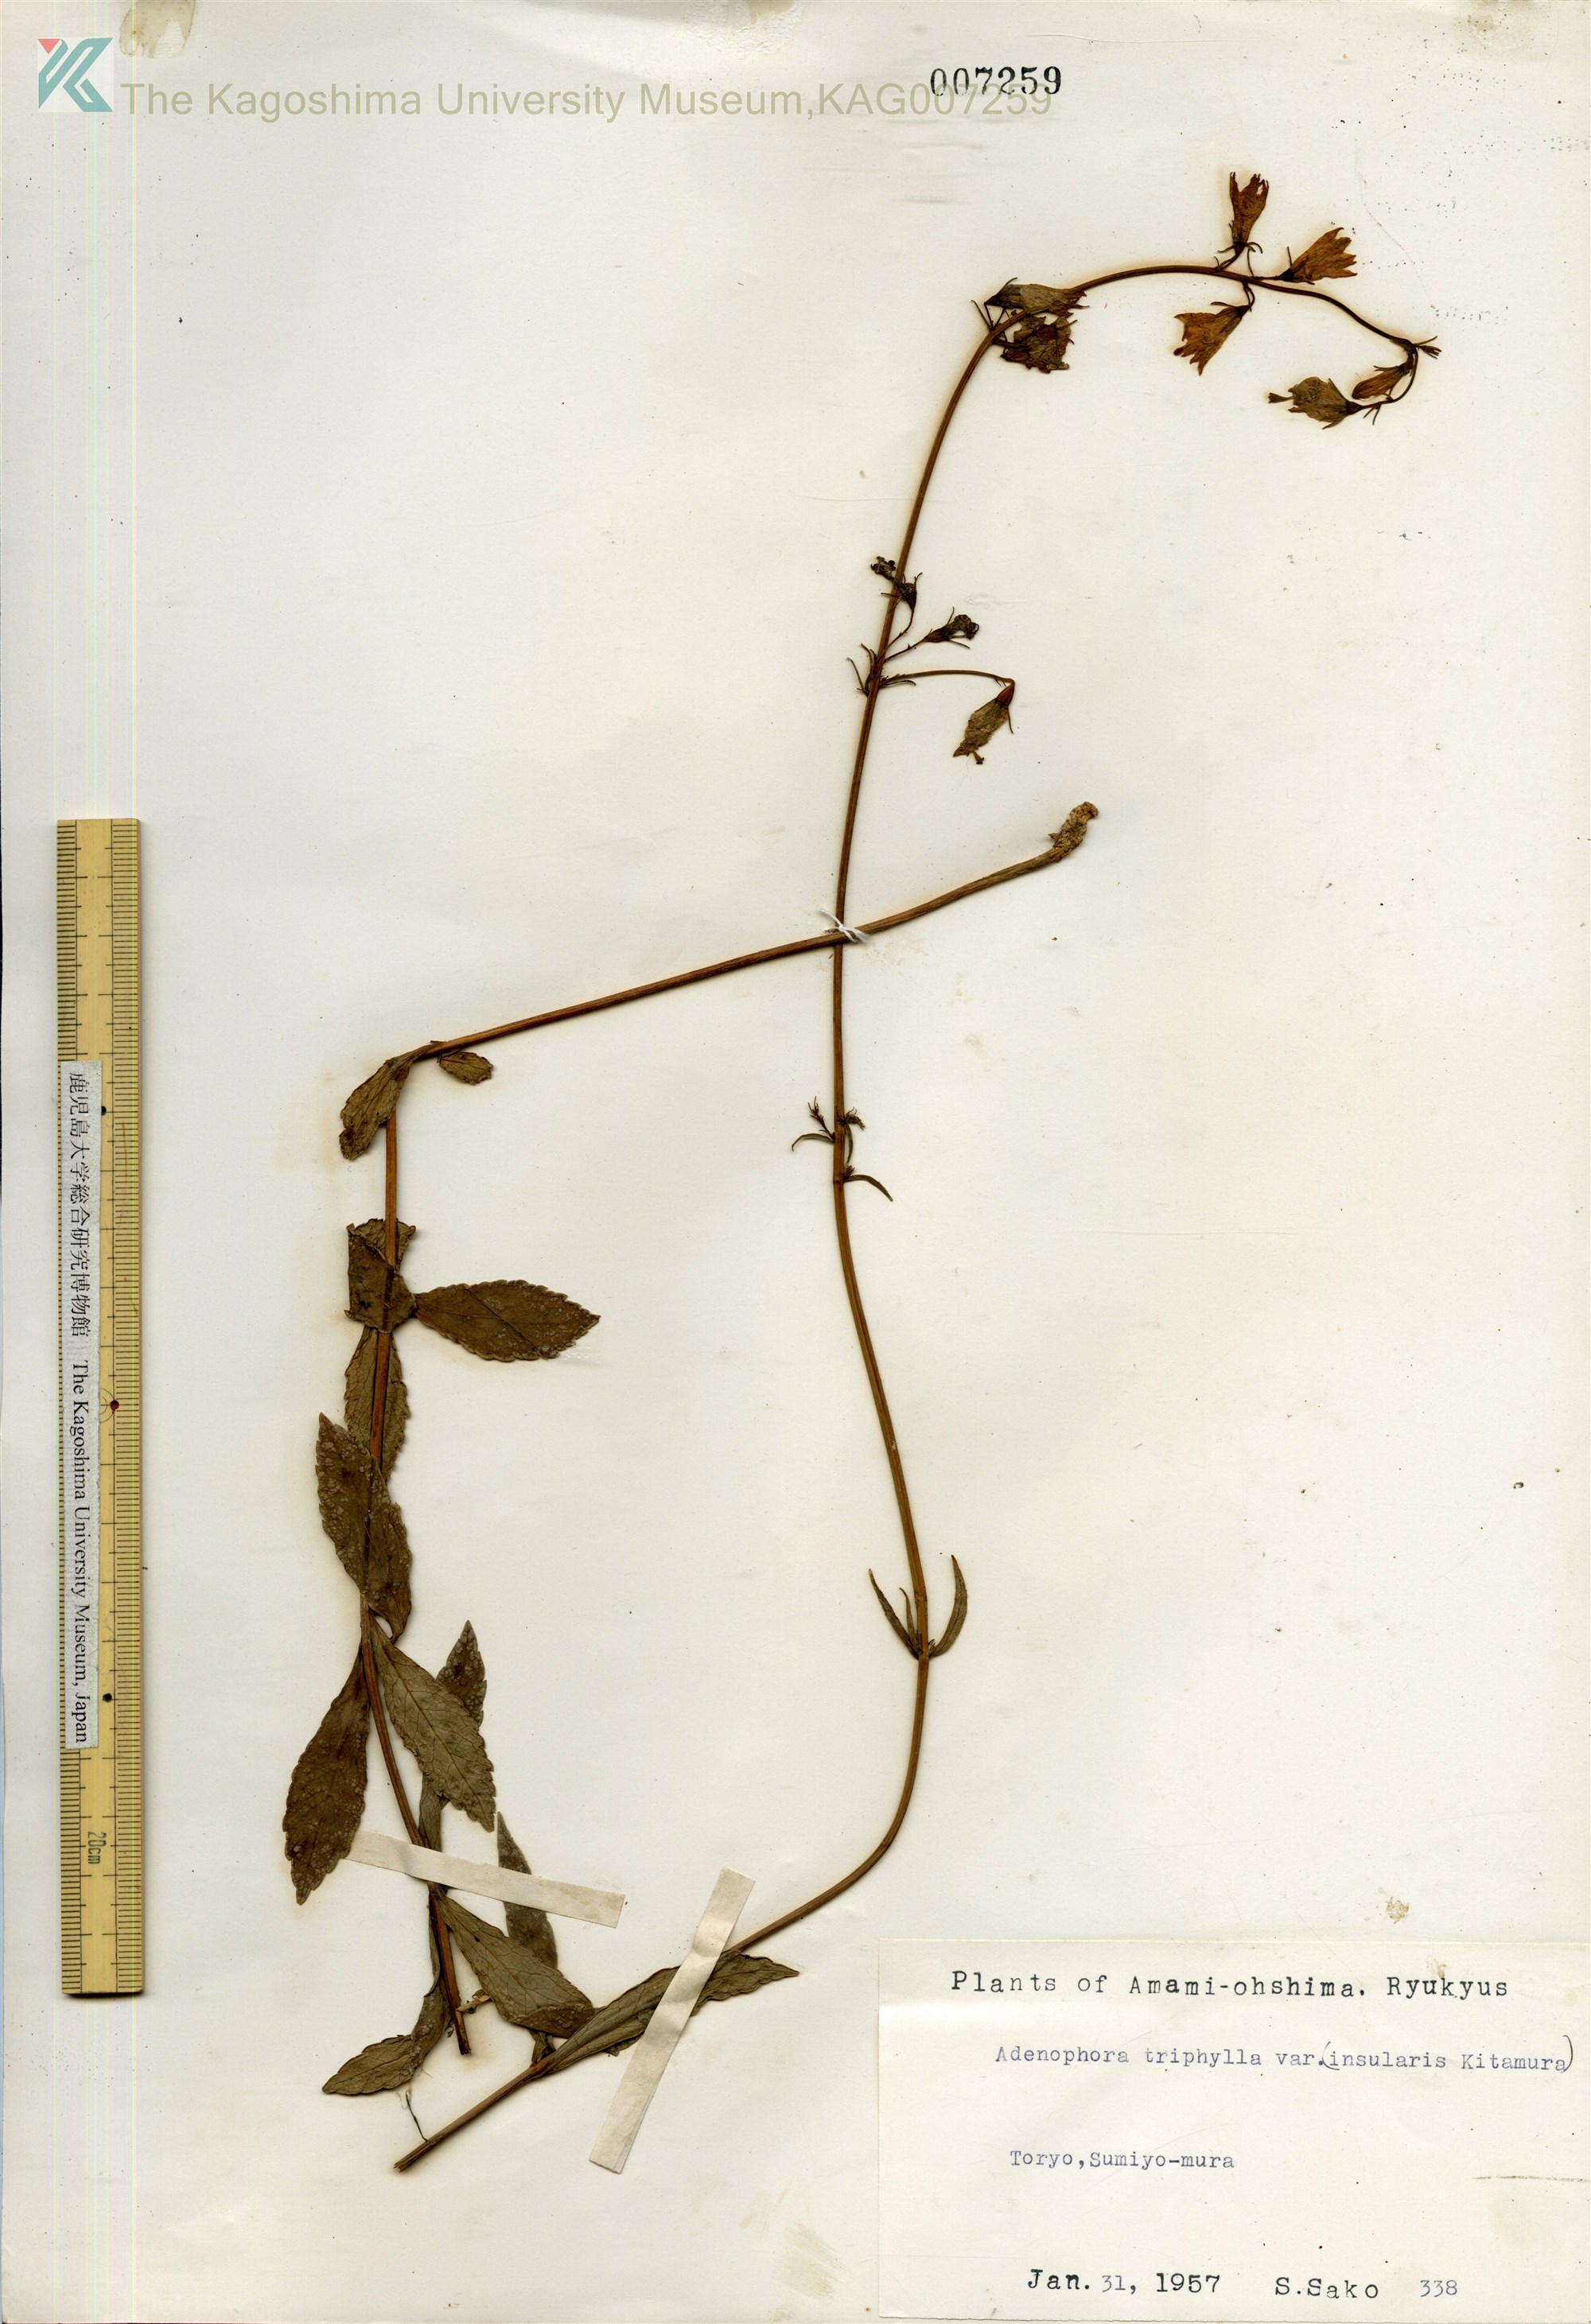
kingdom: Plantae
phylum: Tracheophyta
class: Magnoliopsida
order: Asterales
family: Campanulaceae
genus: Adenophora
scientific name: Adenophora tashiroi
